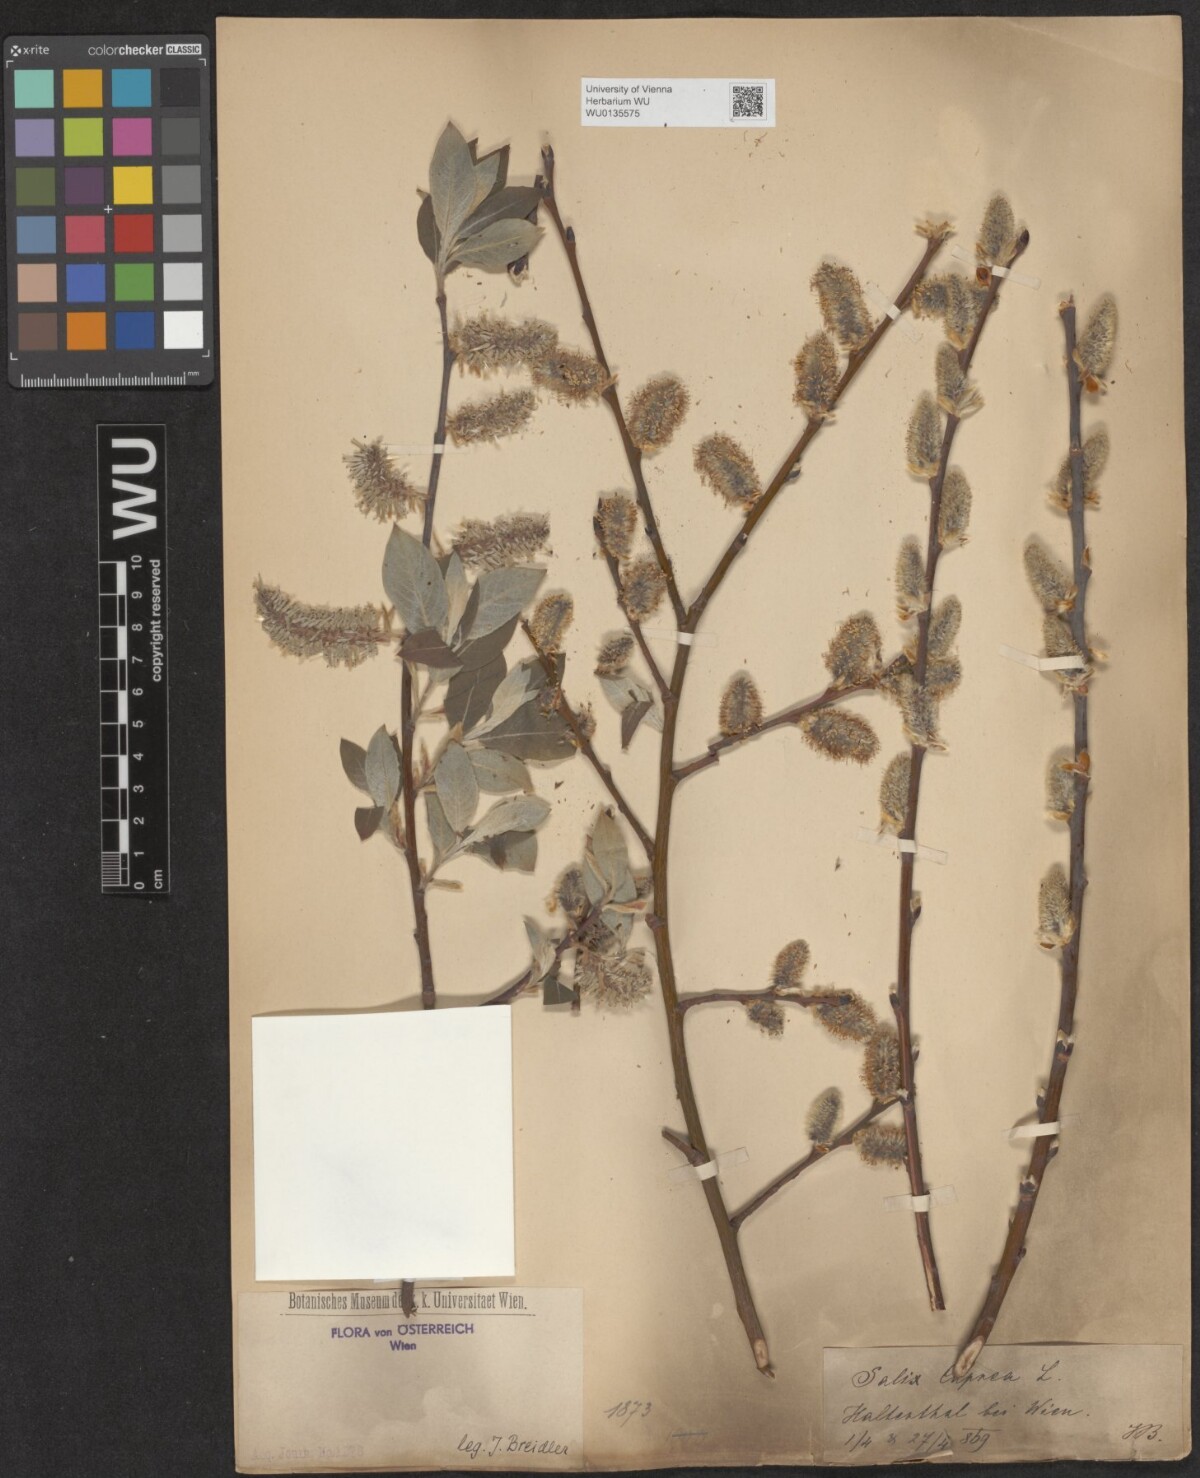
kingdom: Plantae
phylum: Tracheophyta
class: Magnoliopsida
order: Malpighiales
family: Salicaceae
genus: Salix
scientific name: Salix caprea
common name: Goat willow
